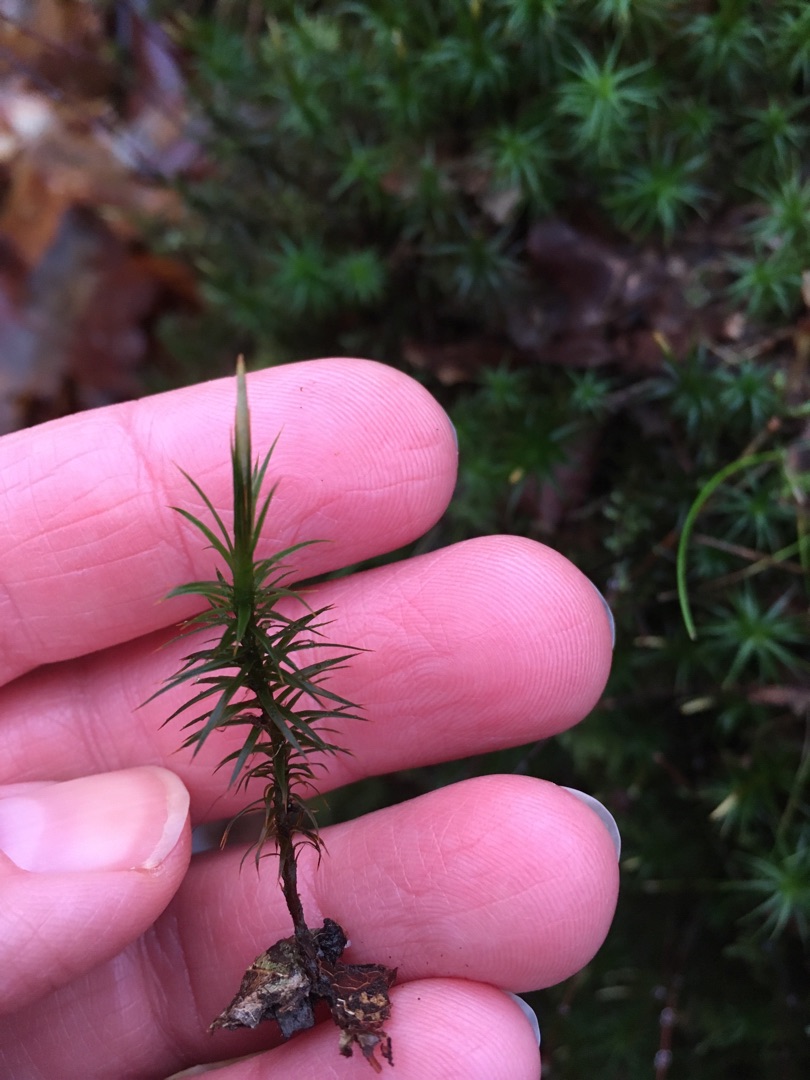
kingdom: Plantae
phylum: Bryophyta
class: Polytrichopsida
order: Polytrichales
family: Polytrichaceae
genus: Polytrichum
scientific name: Polytrichum formosum
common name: Skov-jomfruhår
